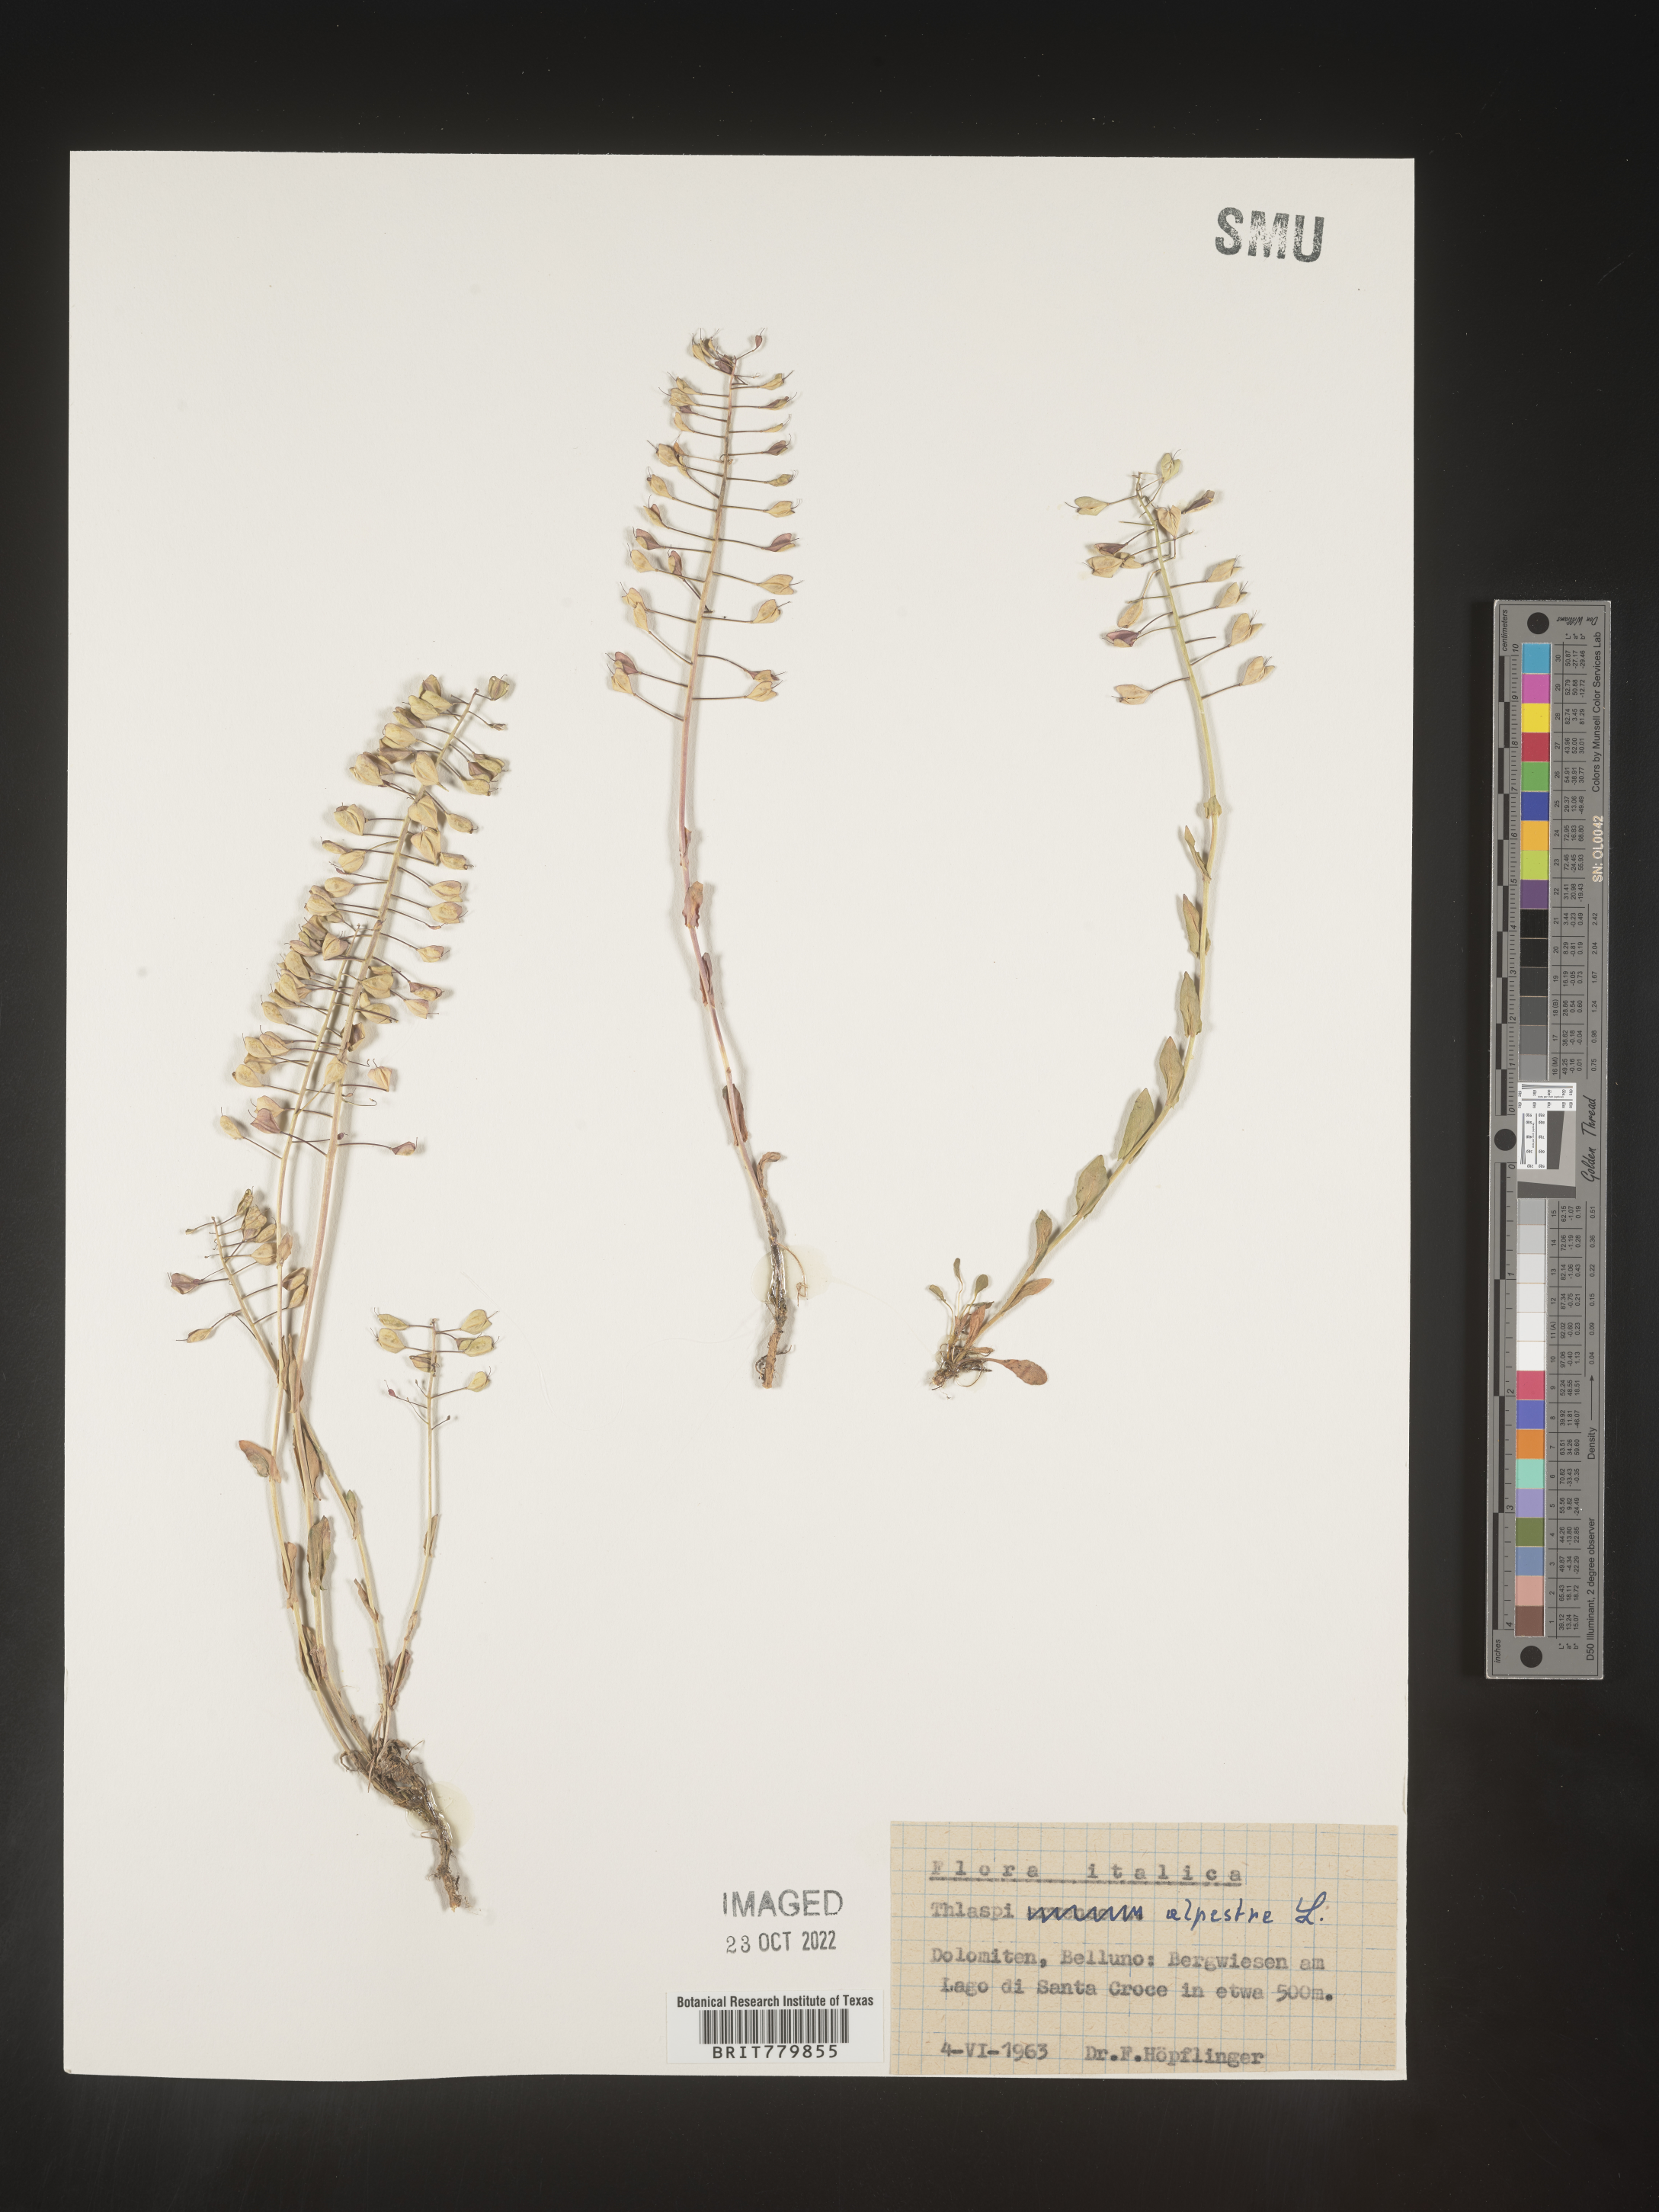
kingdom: Plantae
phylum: Tracheophyta
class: Magnoliopsida
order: Brassicales
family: Brassicaceae
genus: Thlaspi
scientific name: Thlaspi
